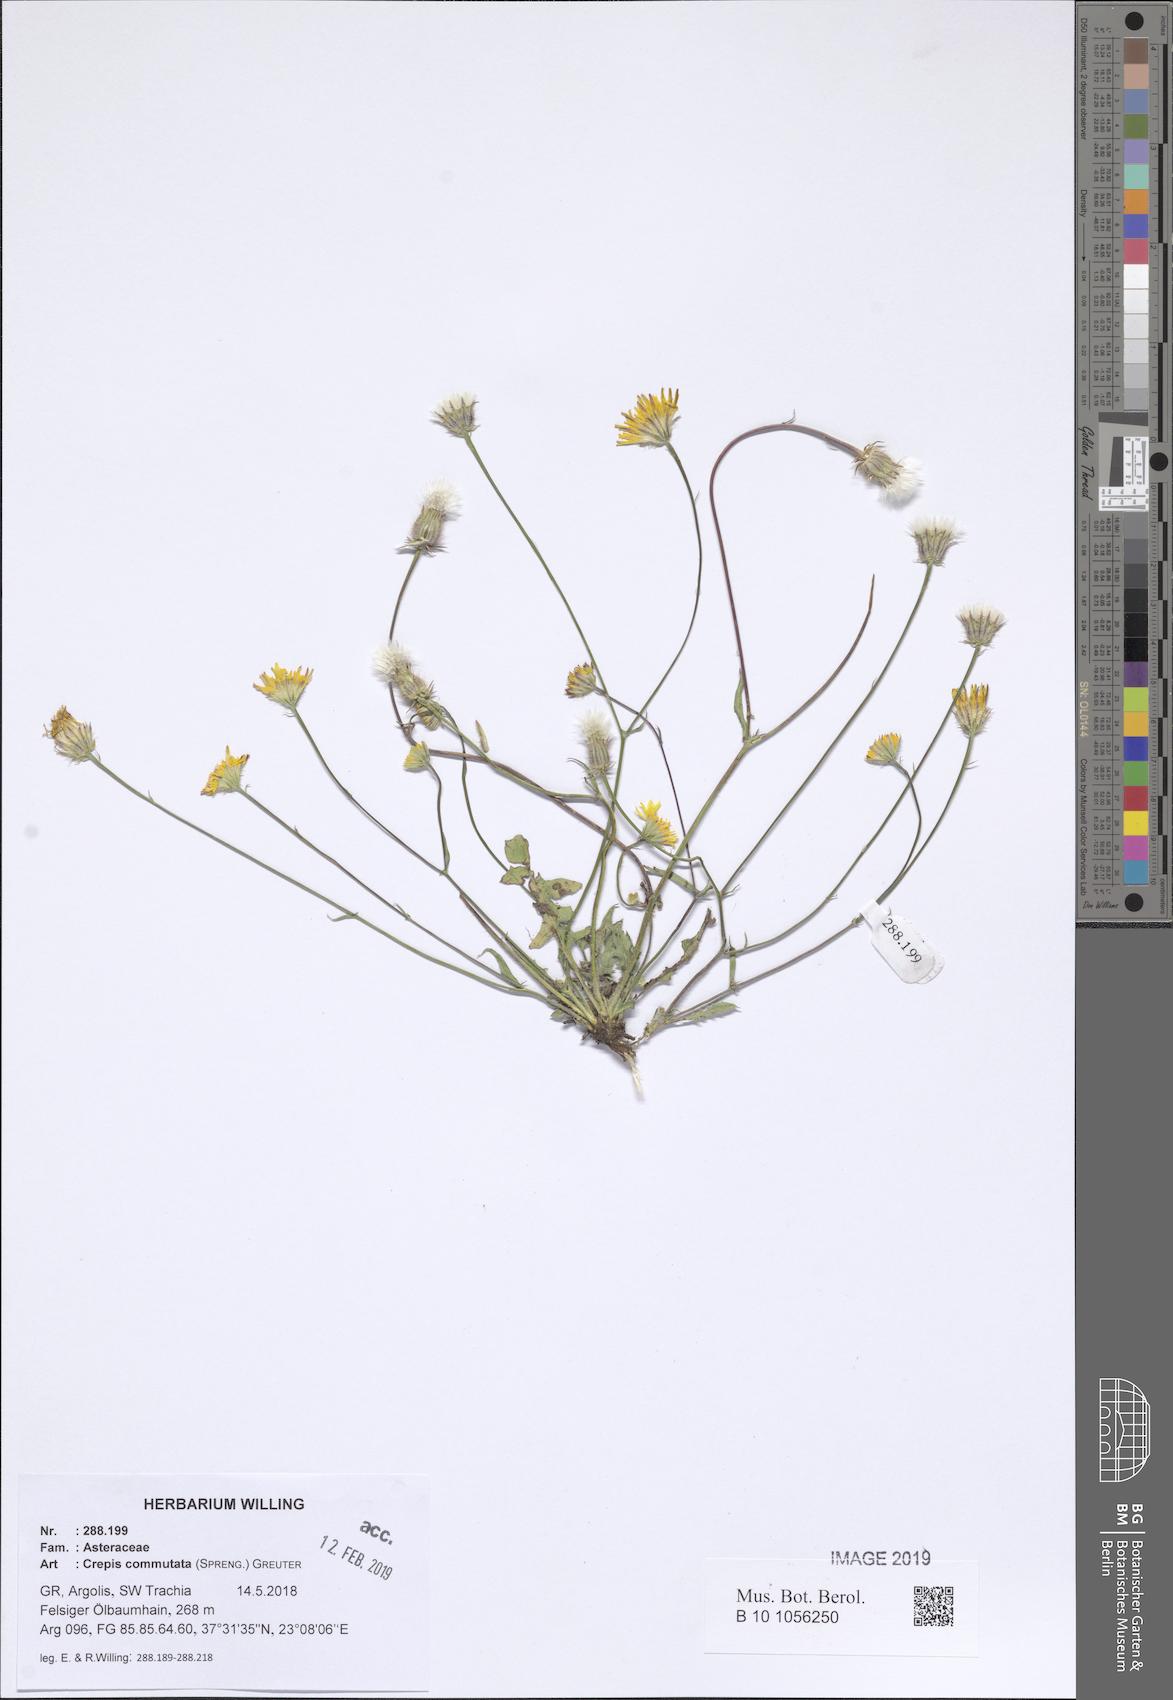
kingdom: Plantae
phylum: Tracheophyta
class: Magnoliopsida
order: Asterales
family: Asteraceae
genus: Crepis
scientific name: Crepis commutata
